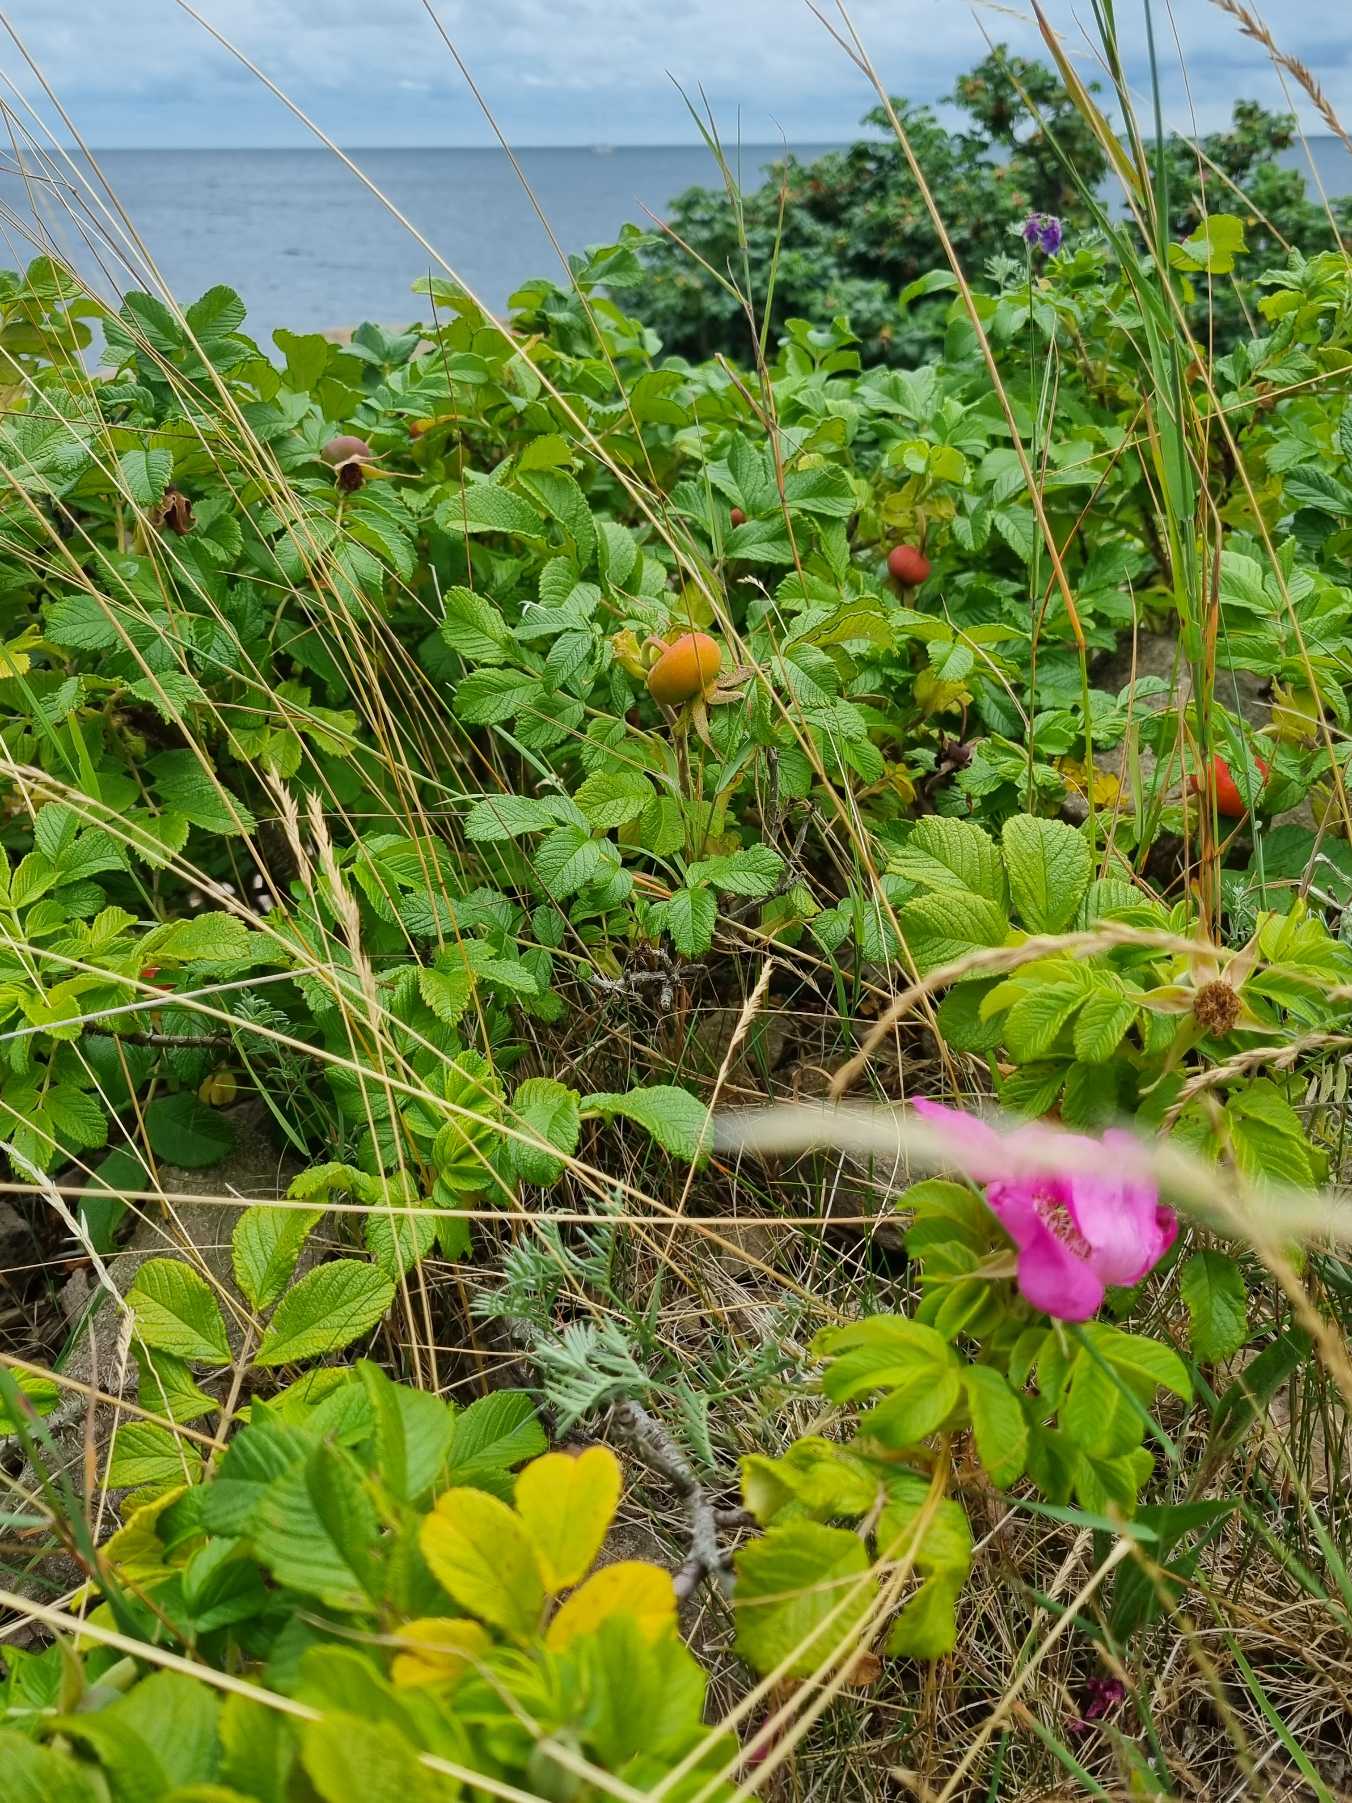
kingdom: Plantae
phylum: Tracheophyta
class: Magnoliopsida
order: Rosales
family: Rosaceae
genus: Rosa
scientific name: Rosa rugosa
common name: Rynket rose
